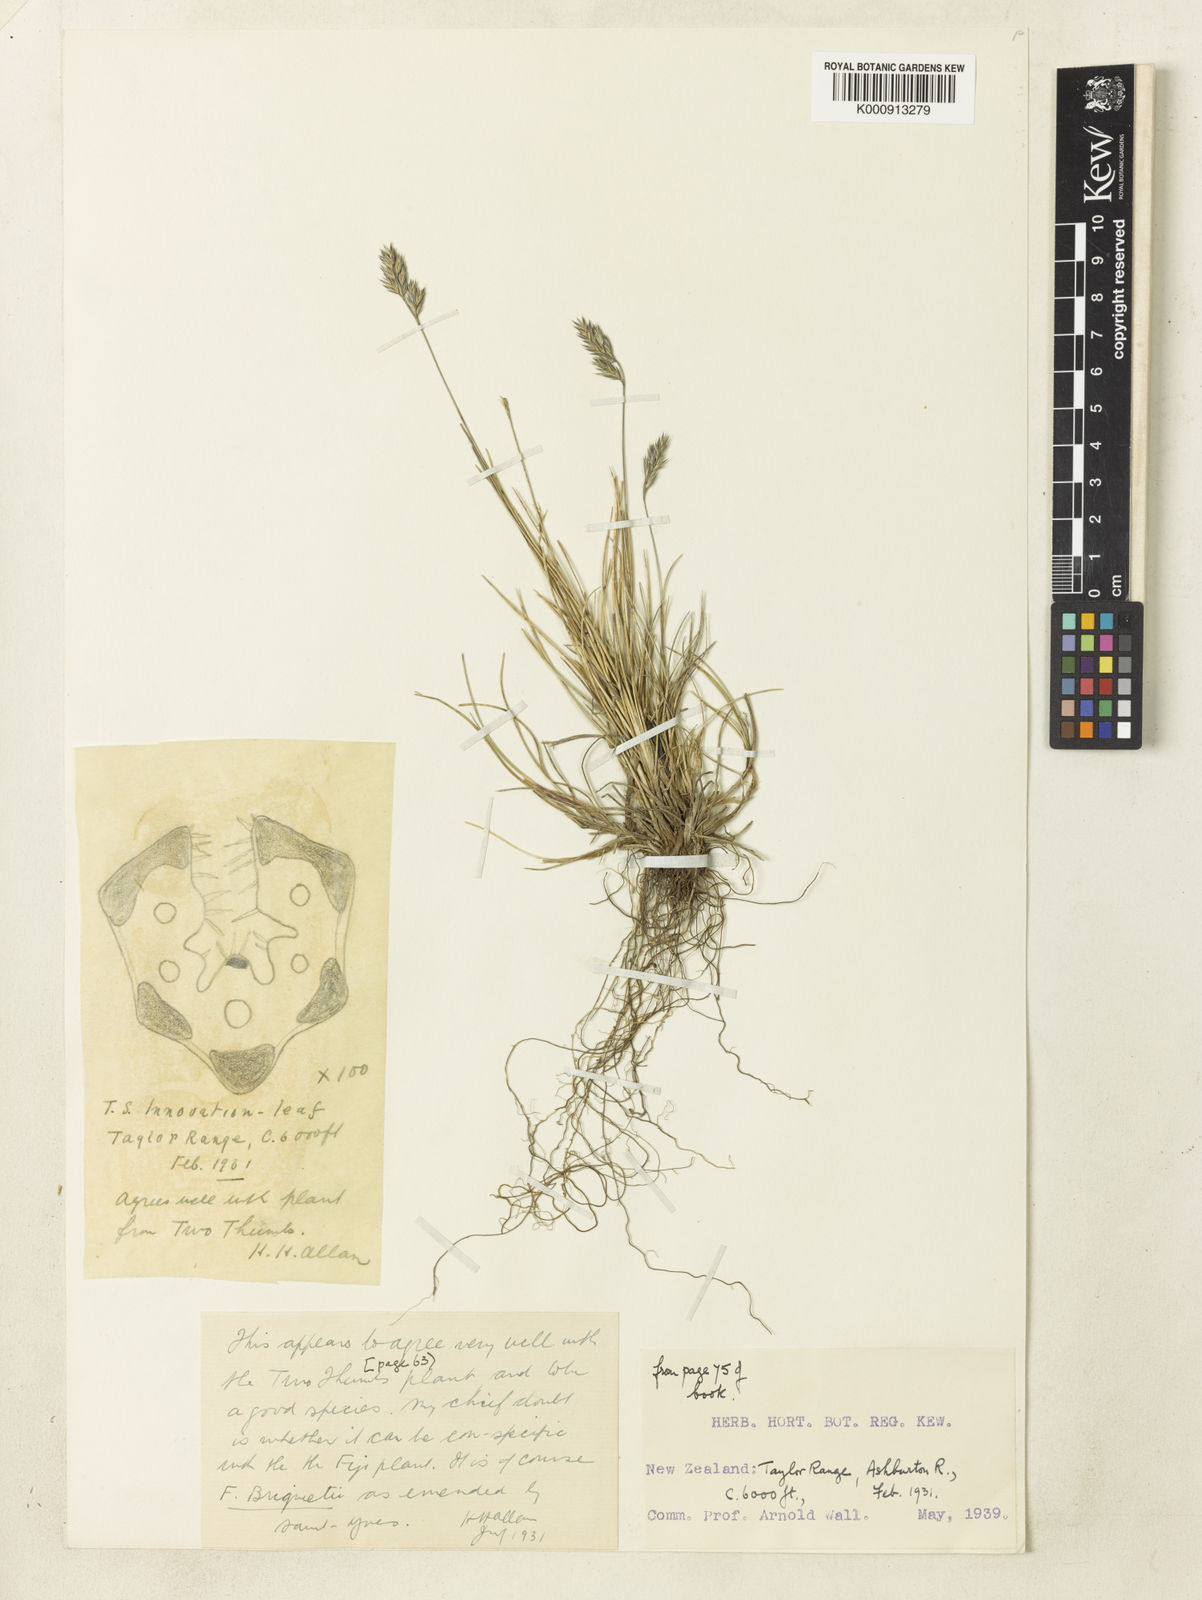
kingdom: Plantae
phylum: Tracheophyta
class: Liliopsida
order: Poales
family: Poaceae
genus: Festuca
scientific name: Festuca rubra
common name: Red fescue
